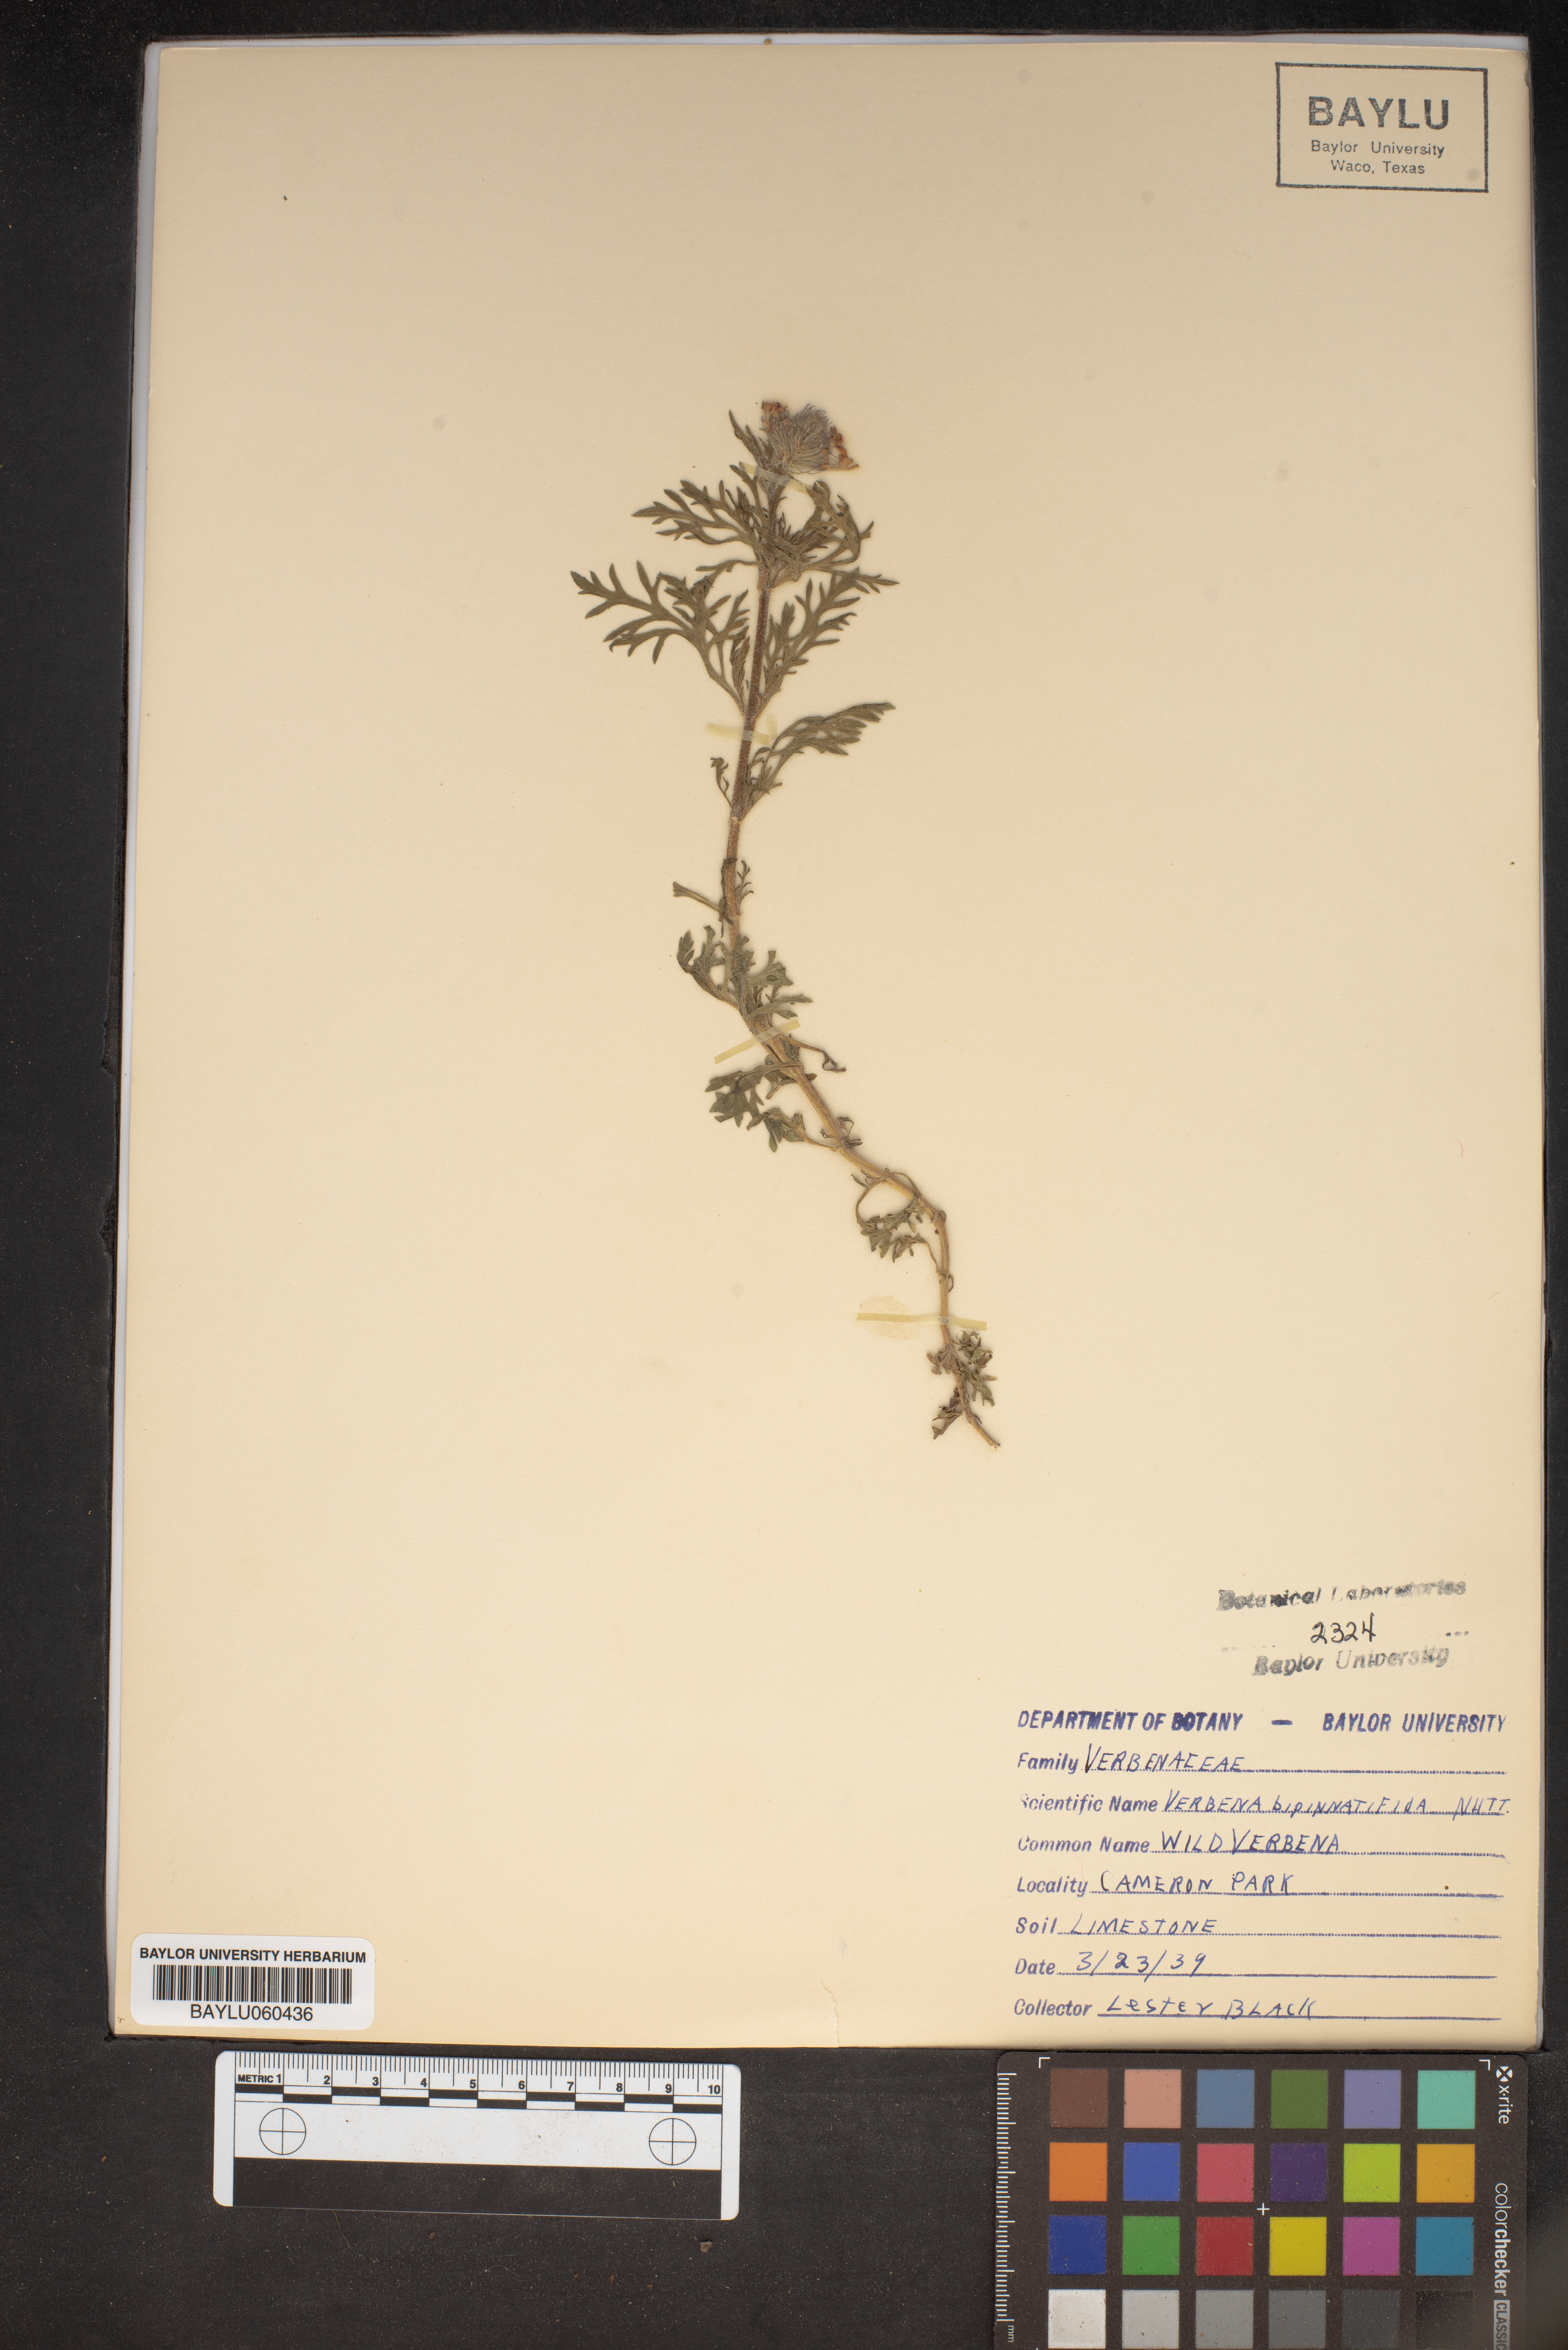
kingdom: Plantae
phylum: Tracheophyta
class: Magnoliopsida
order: Lamiales
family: Verbenaceae
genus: Verbena
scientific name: Verbena bipinnatifida
